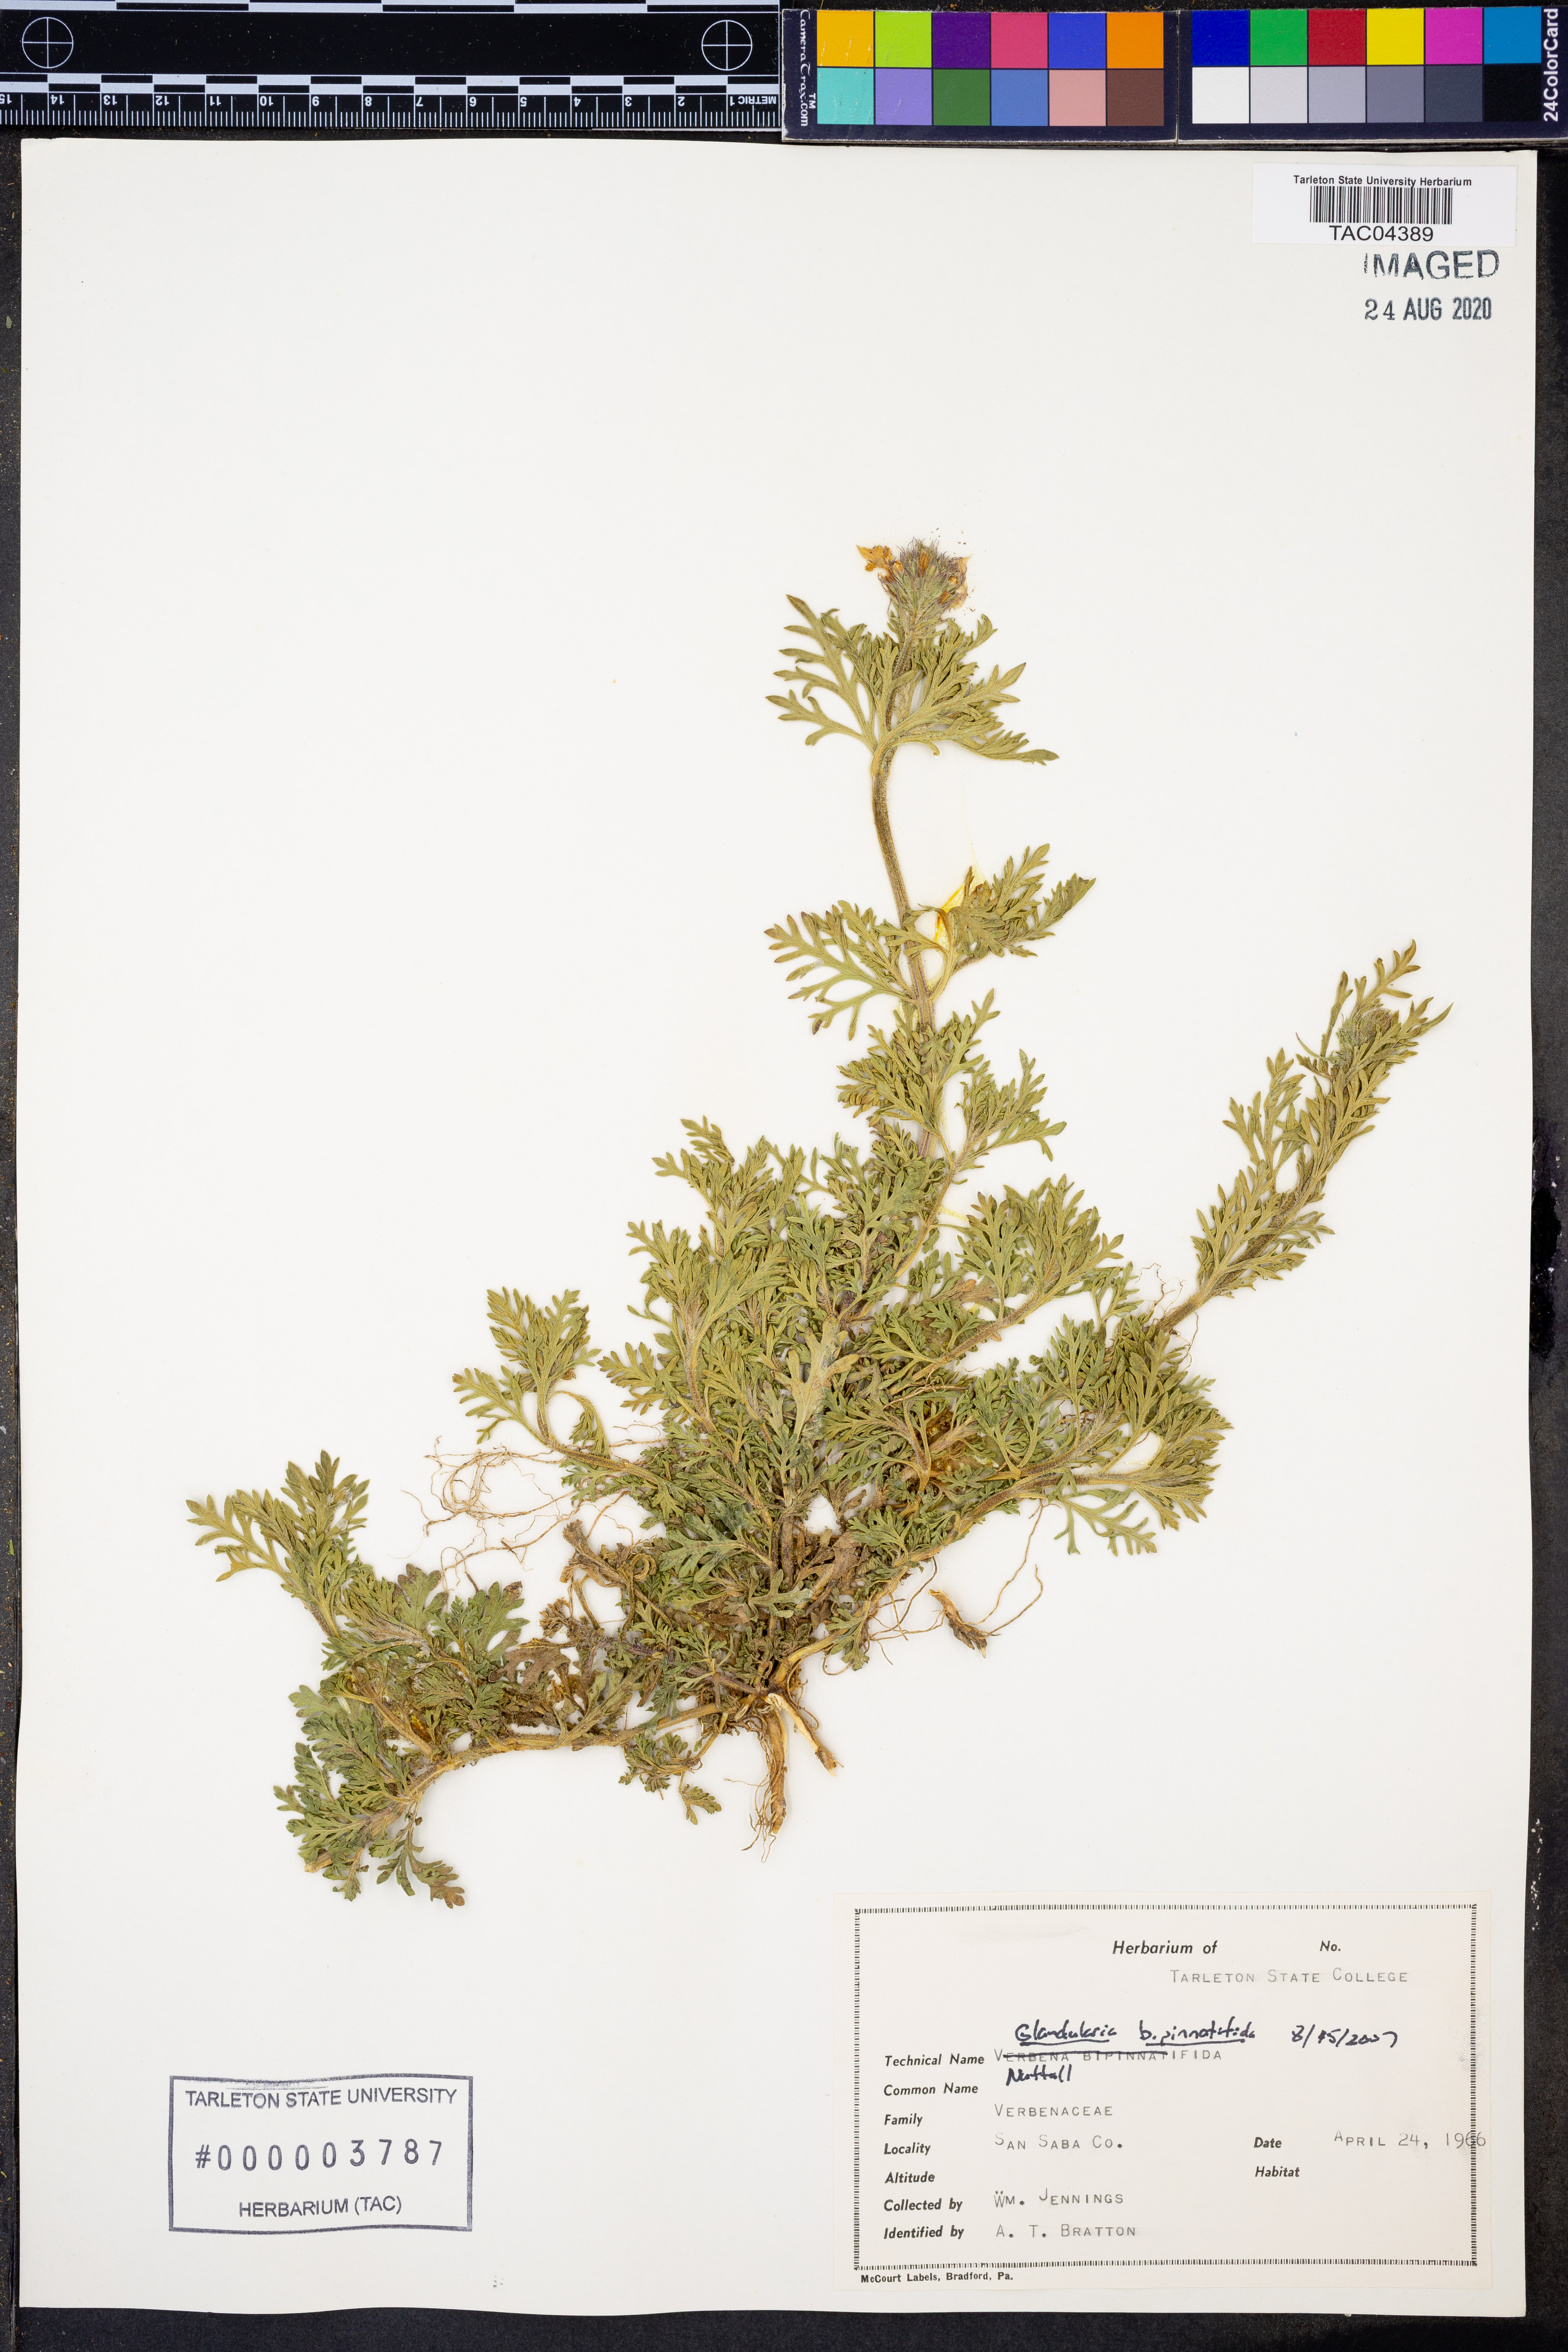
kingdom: Plantae
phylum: Tracheophyta
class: Magnoliopsida
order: Lamiales
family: Verbenaceae
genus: Verbena
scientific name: Verbena bipinnatifida
